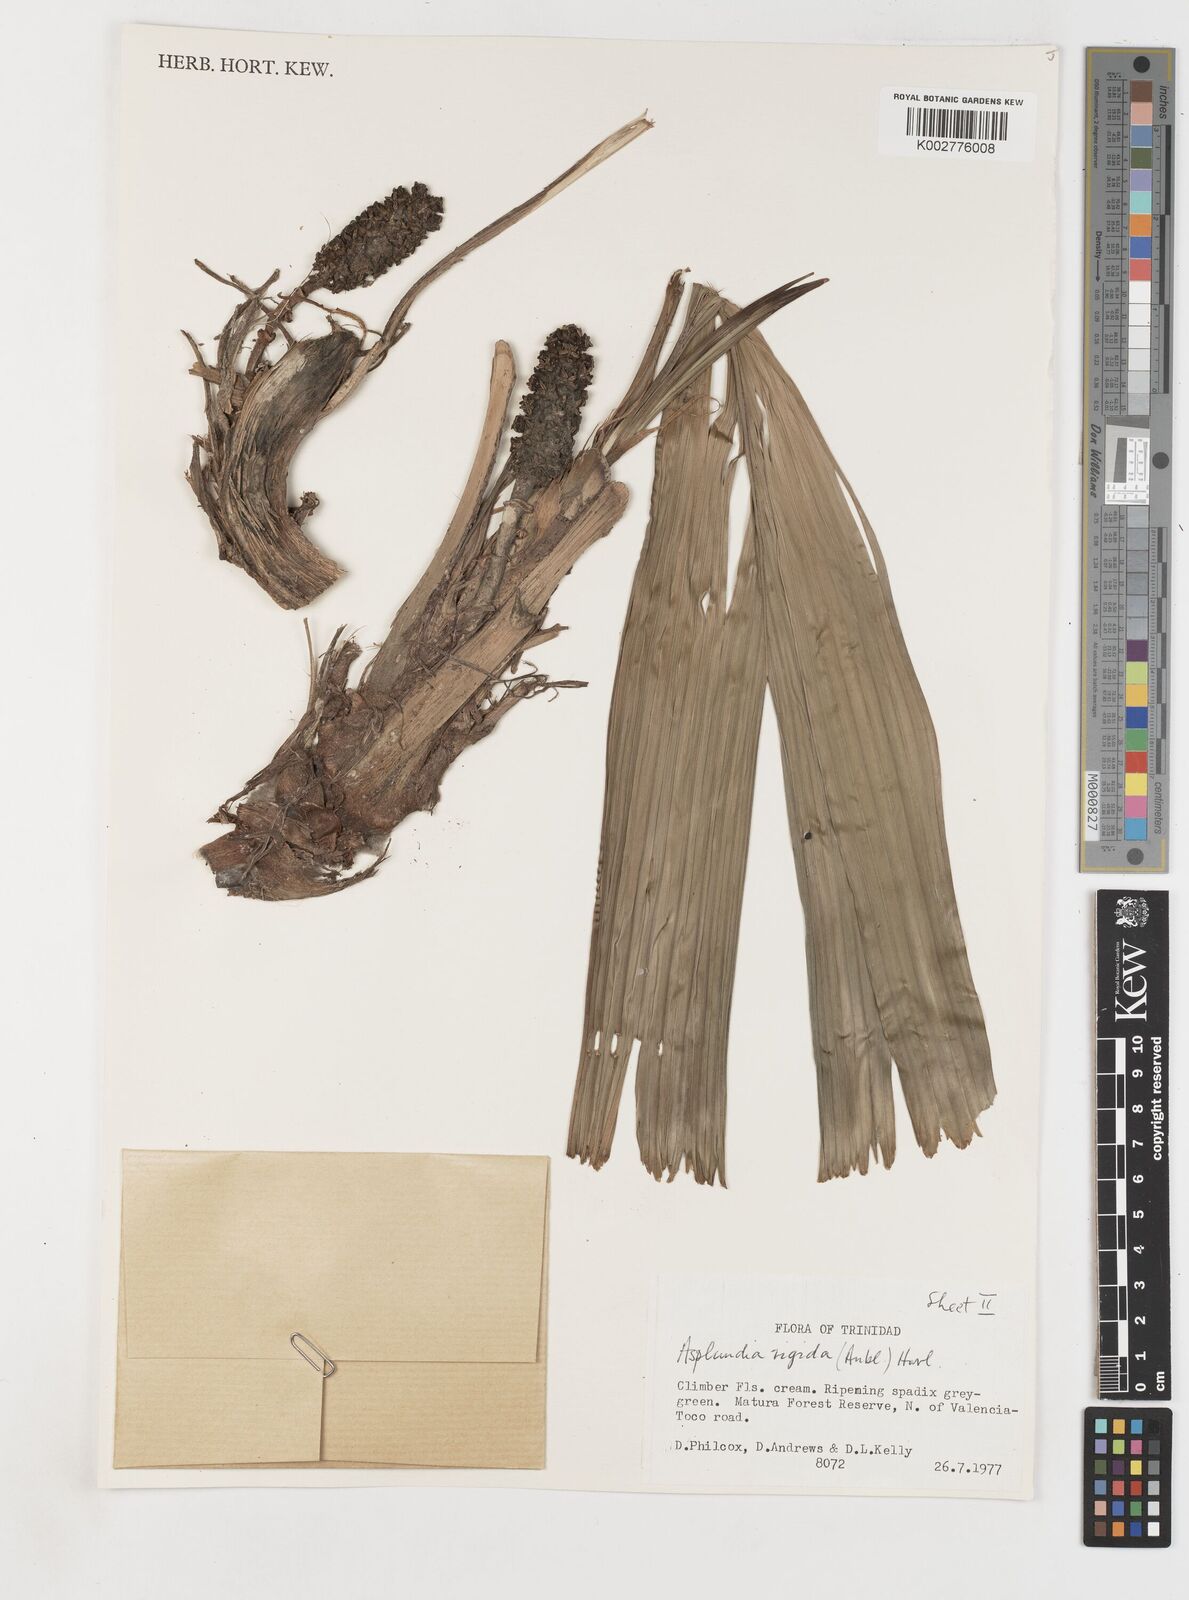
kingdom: Plantae
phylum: Tracheophyta
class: Liliopsida
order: Pandanales
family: Cyclanthaceae
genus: Asplundia
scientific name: Asplundia rigida
